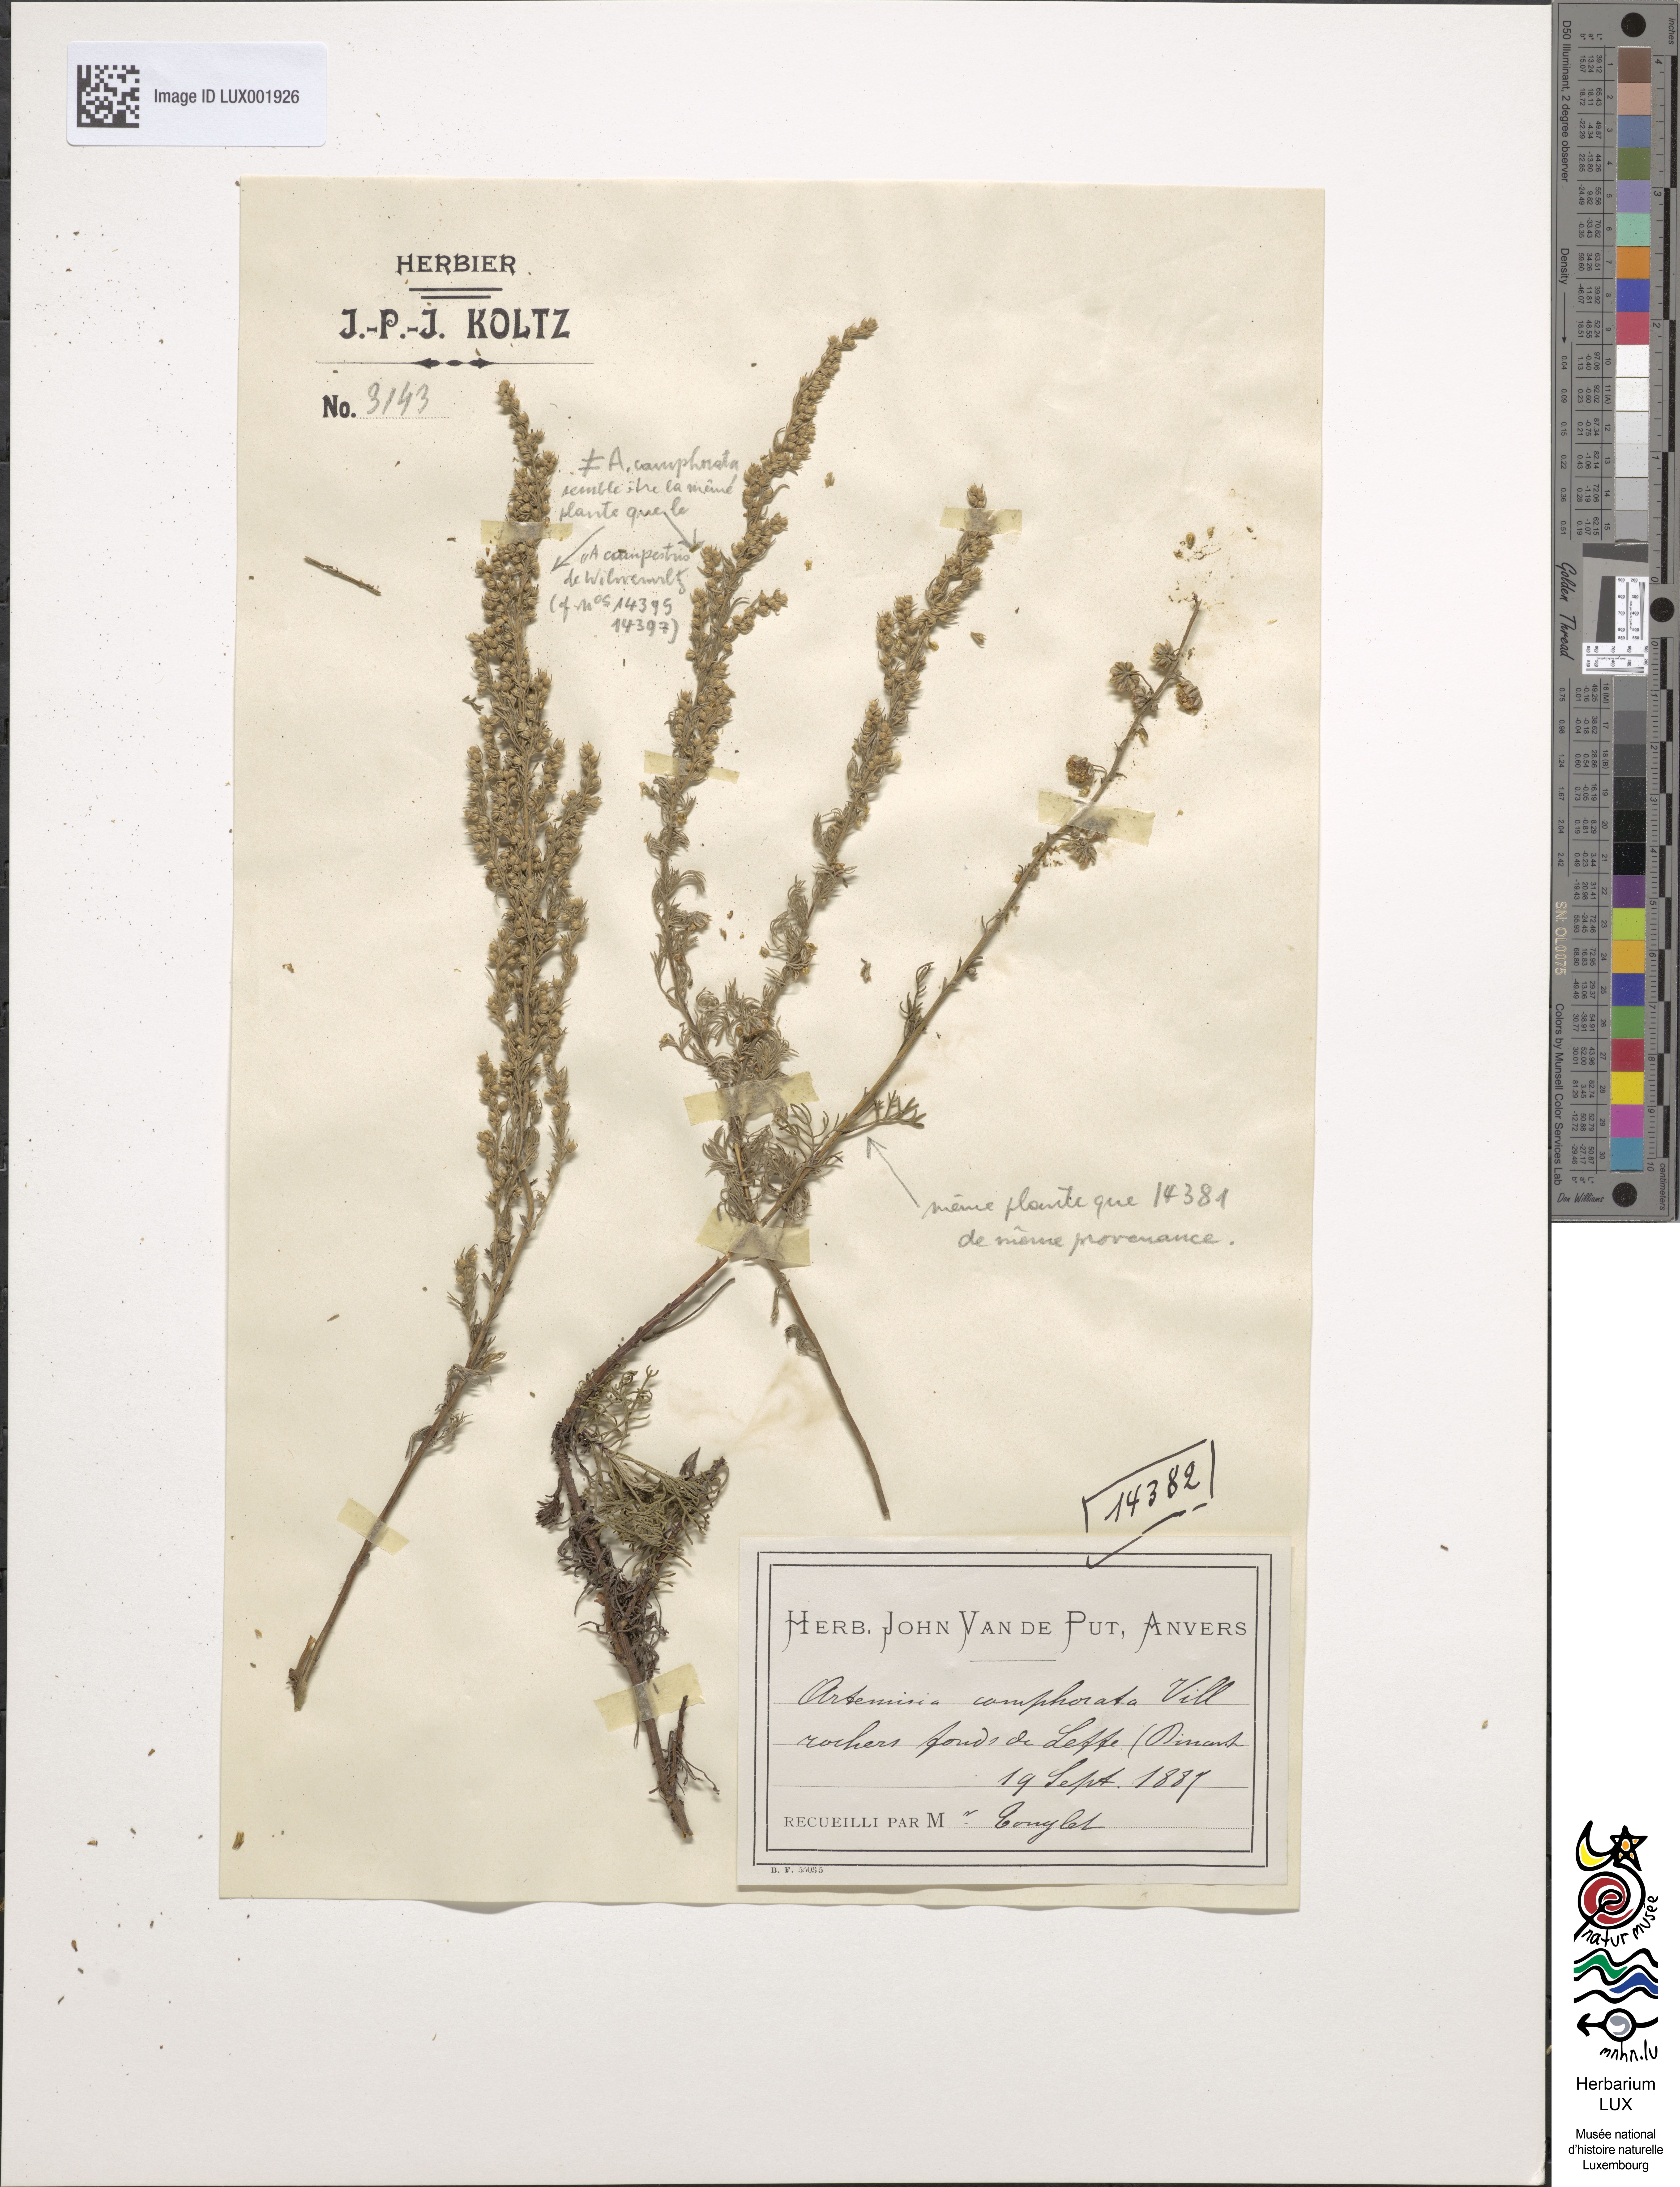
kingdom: Plantae
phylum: Tracheophyta
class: Magnoliopsida
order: Asterales
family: Asteraceae
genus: Artemisia
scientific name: Artemisia alba
